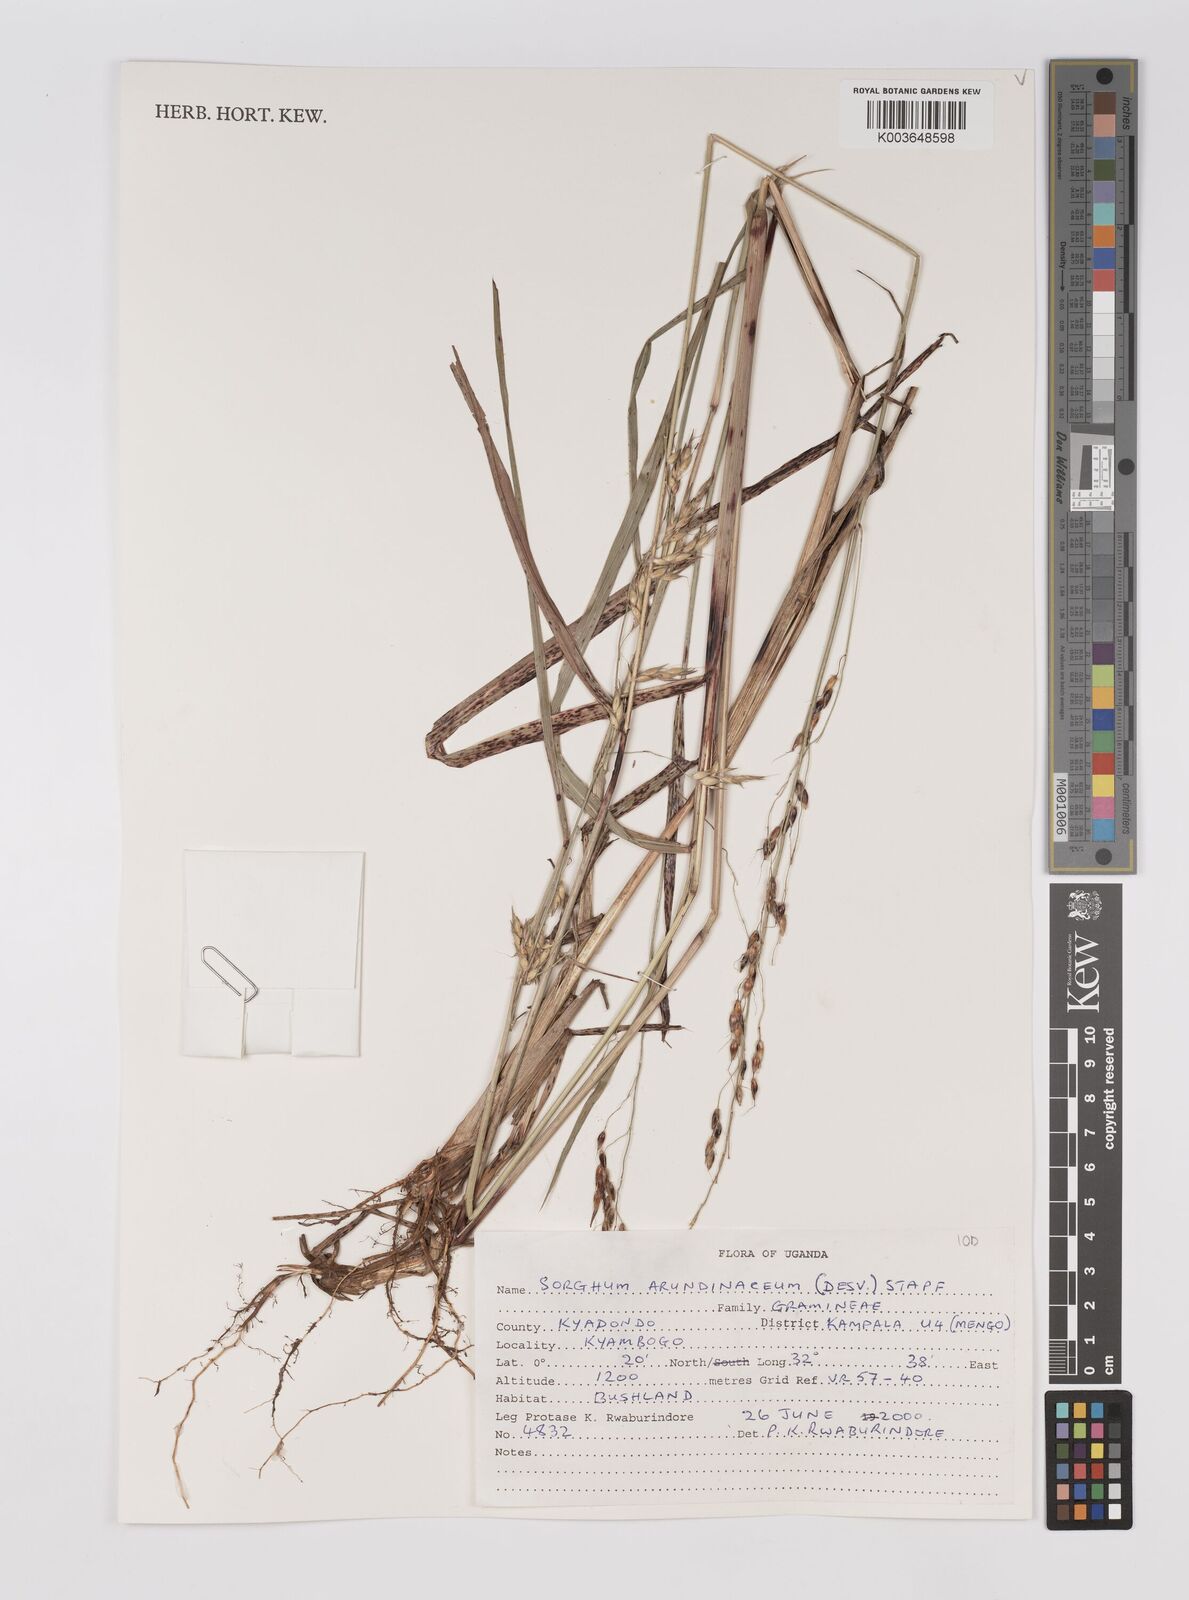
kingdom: Plantae
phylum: Tracheophyta
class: Liliopsida
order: Poales
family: Poaceae
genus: Sorghum
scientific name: Sorghum arundinaceum
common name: Sorghum
